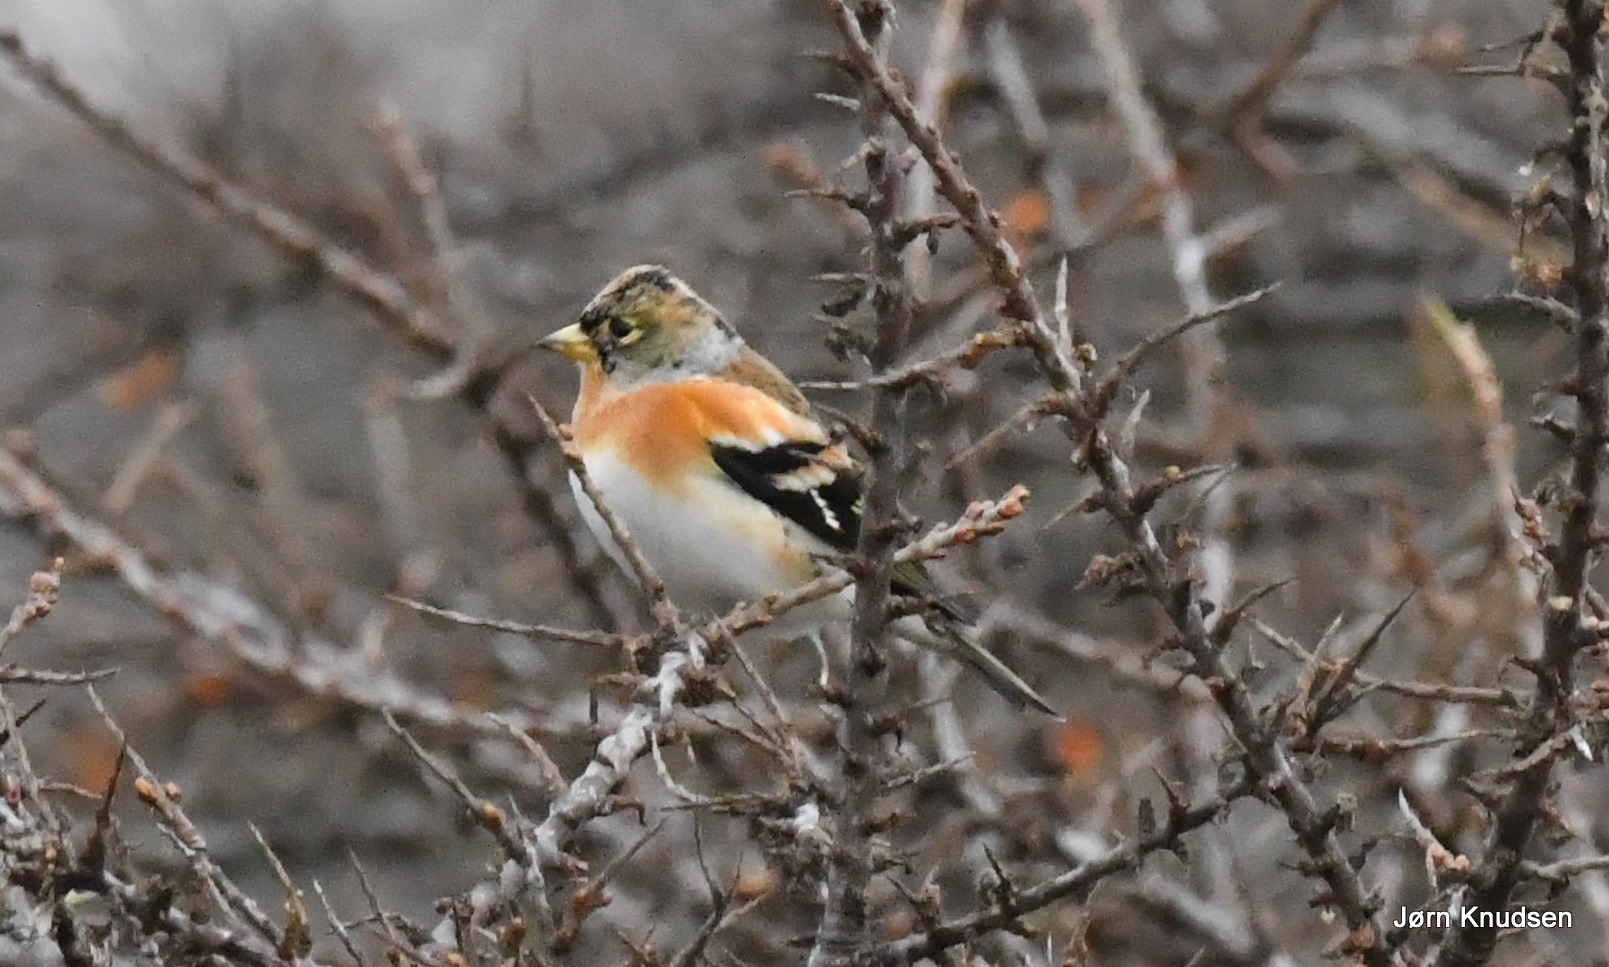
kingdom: Animalia
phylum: Chordata
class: Aves
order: Passeriformes
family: Fringillidae
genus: Fringilla
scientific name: Fringilla montifringilla
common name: Kvækerfinke
